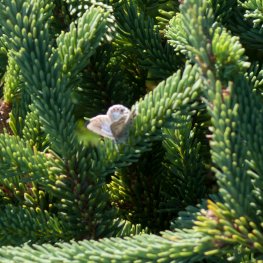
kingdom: Animalia
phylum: Arthropoda
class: Insecta
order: Lepidoptera
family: Lycaenidae
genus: Lycaeides
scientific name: Lycaeides idas
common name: Northern Blue
